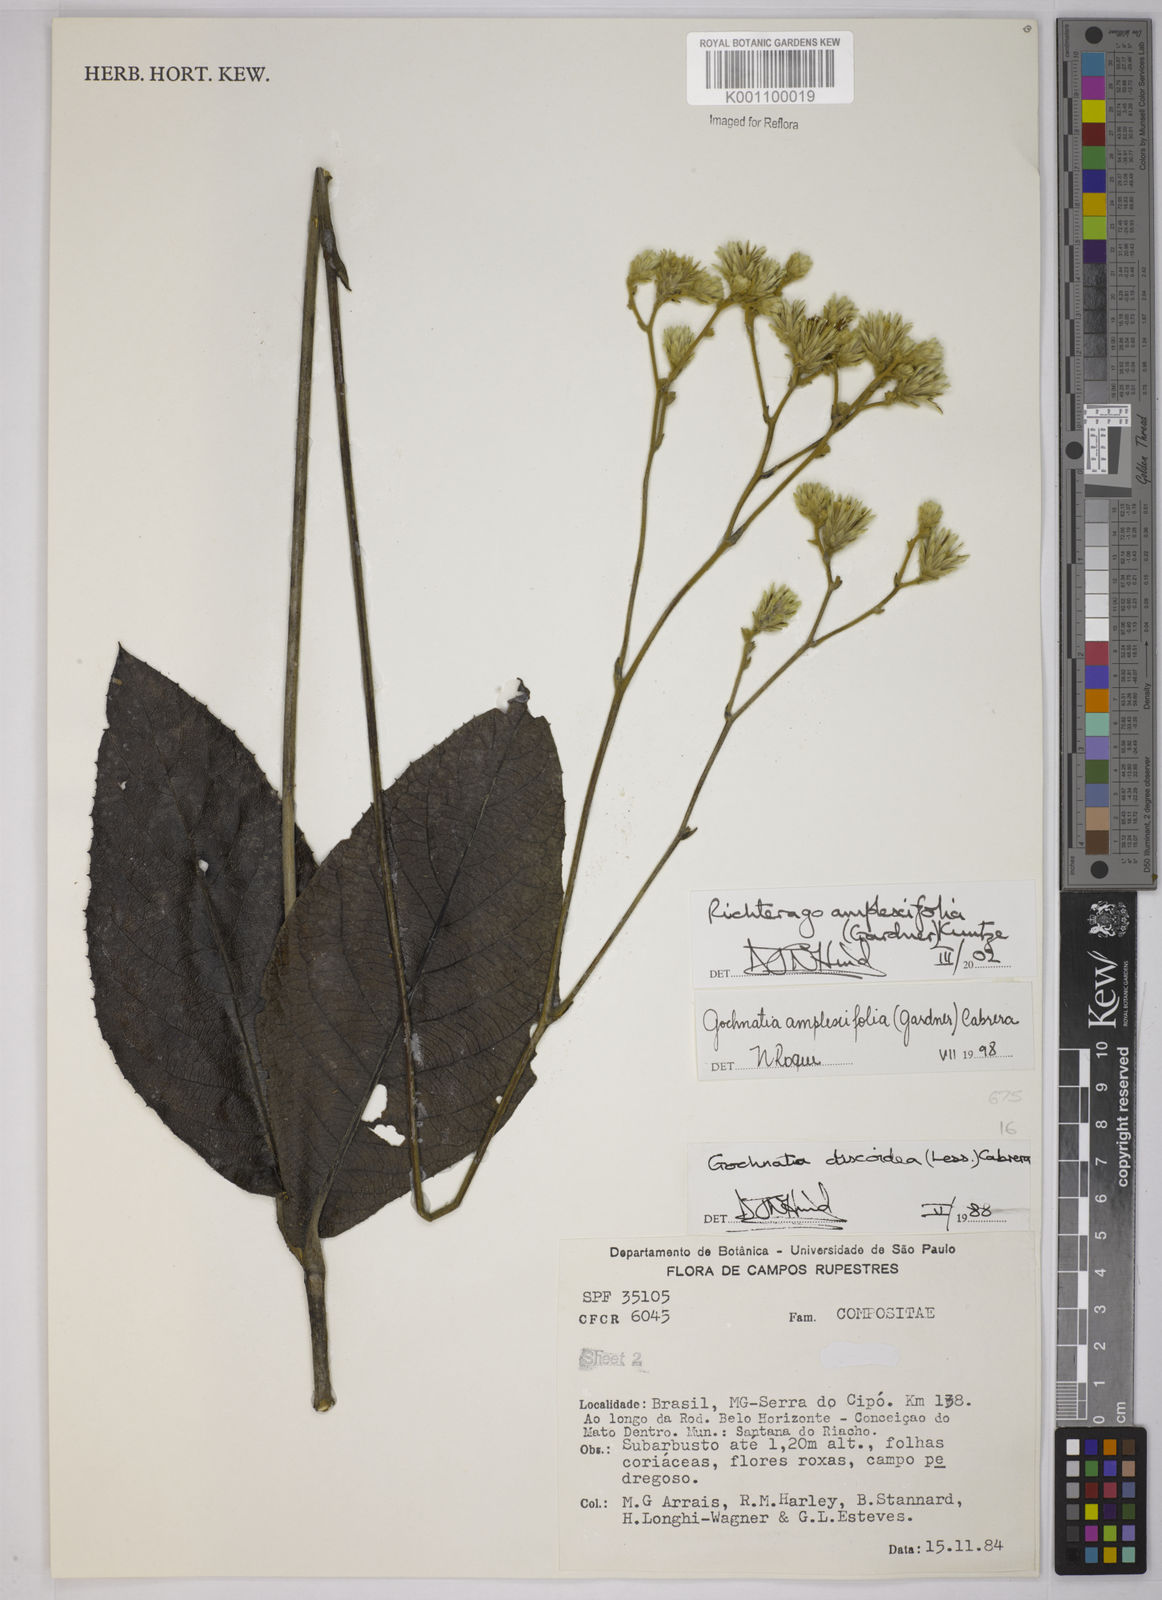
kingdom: Plantae
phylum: Tracheophyta
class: Magnoliopsida
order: Asterales
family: Asteraceae
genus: Richterago
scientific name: Richterago amplexifolia
